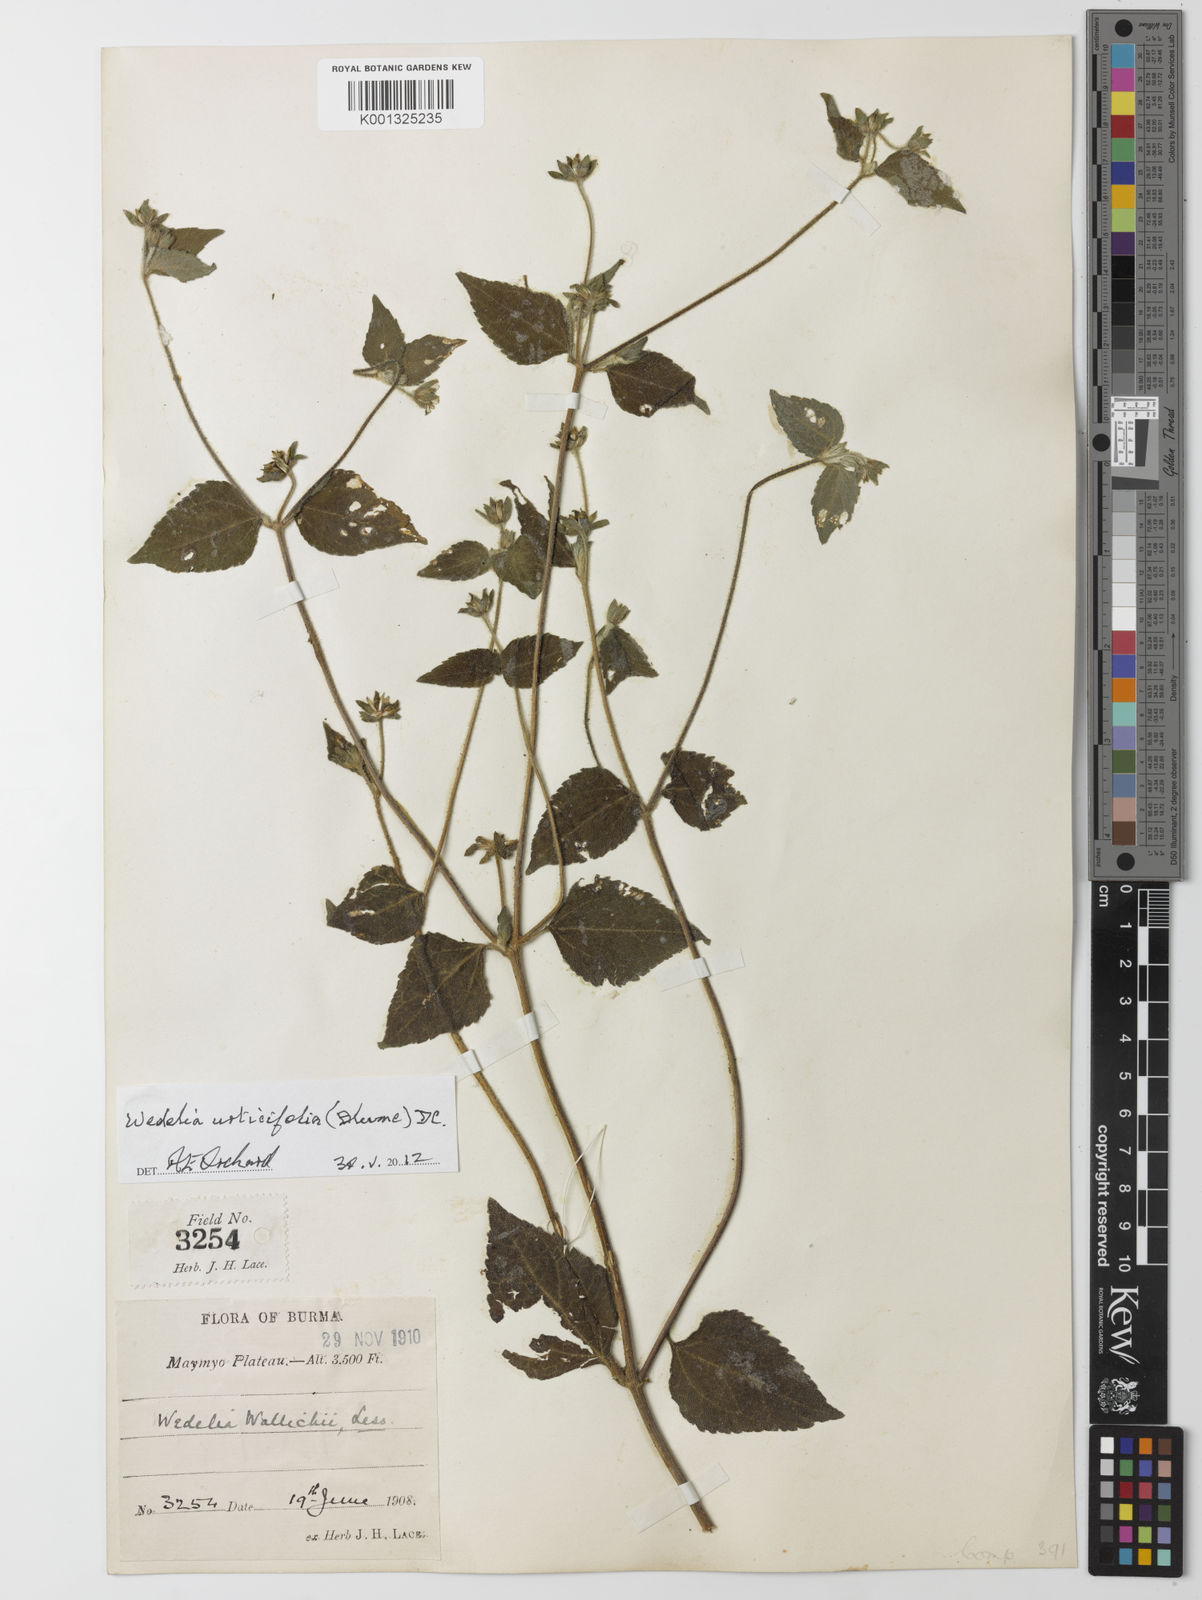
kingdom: Plantae
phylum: Tracheophyta
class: Magnoliopsida
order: Asterales
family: Asteraceae
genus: Lipoblepharis
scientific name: Lipoblepharis urticifolia
